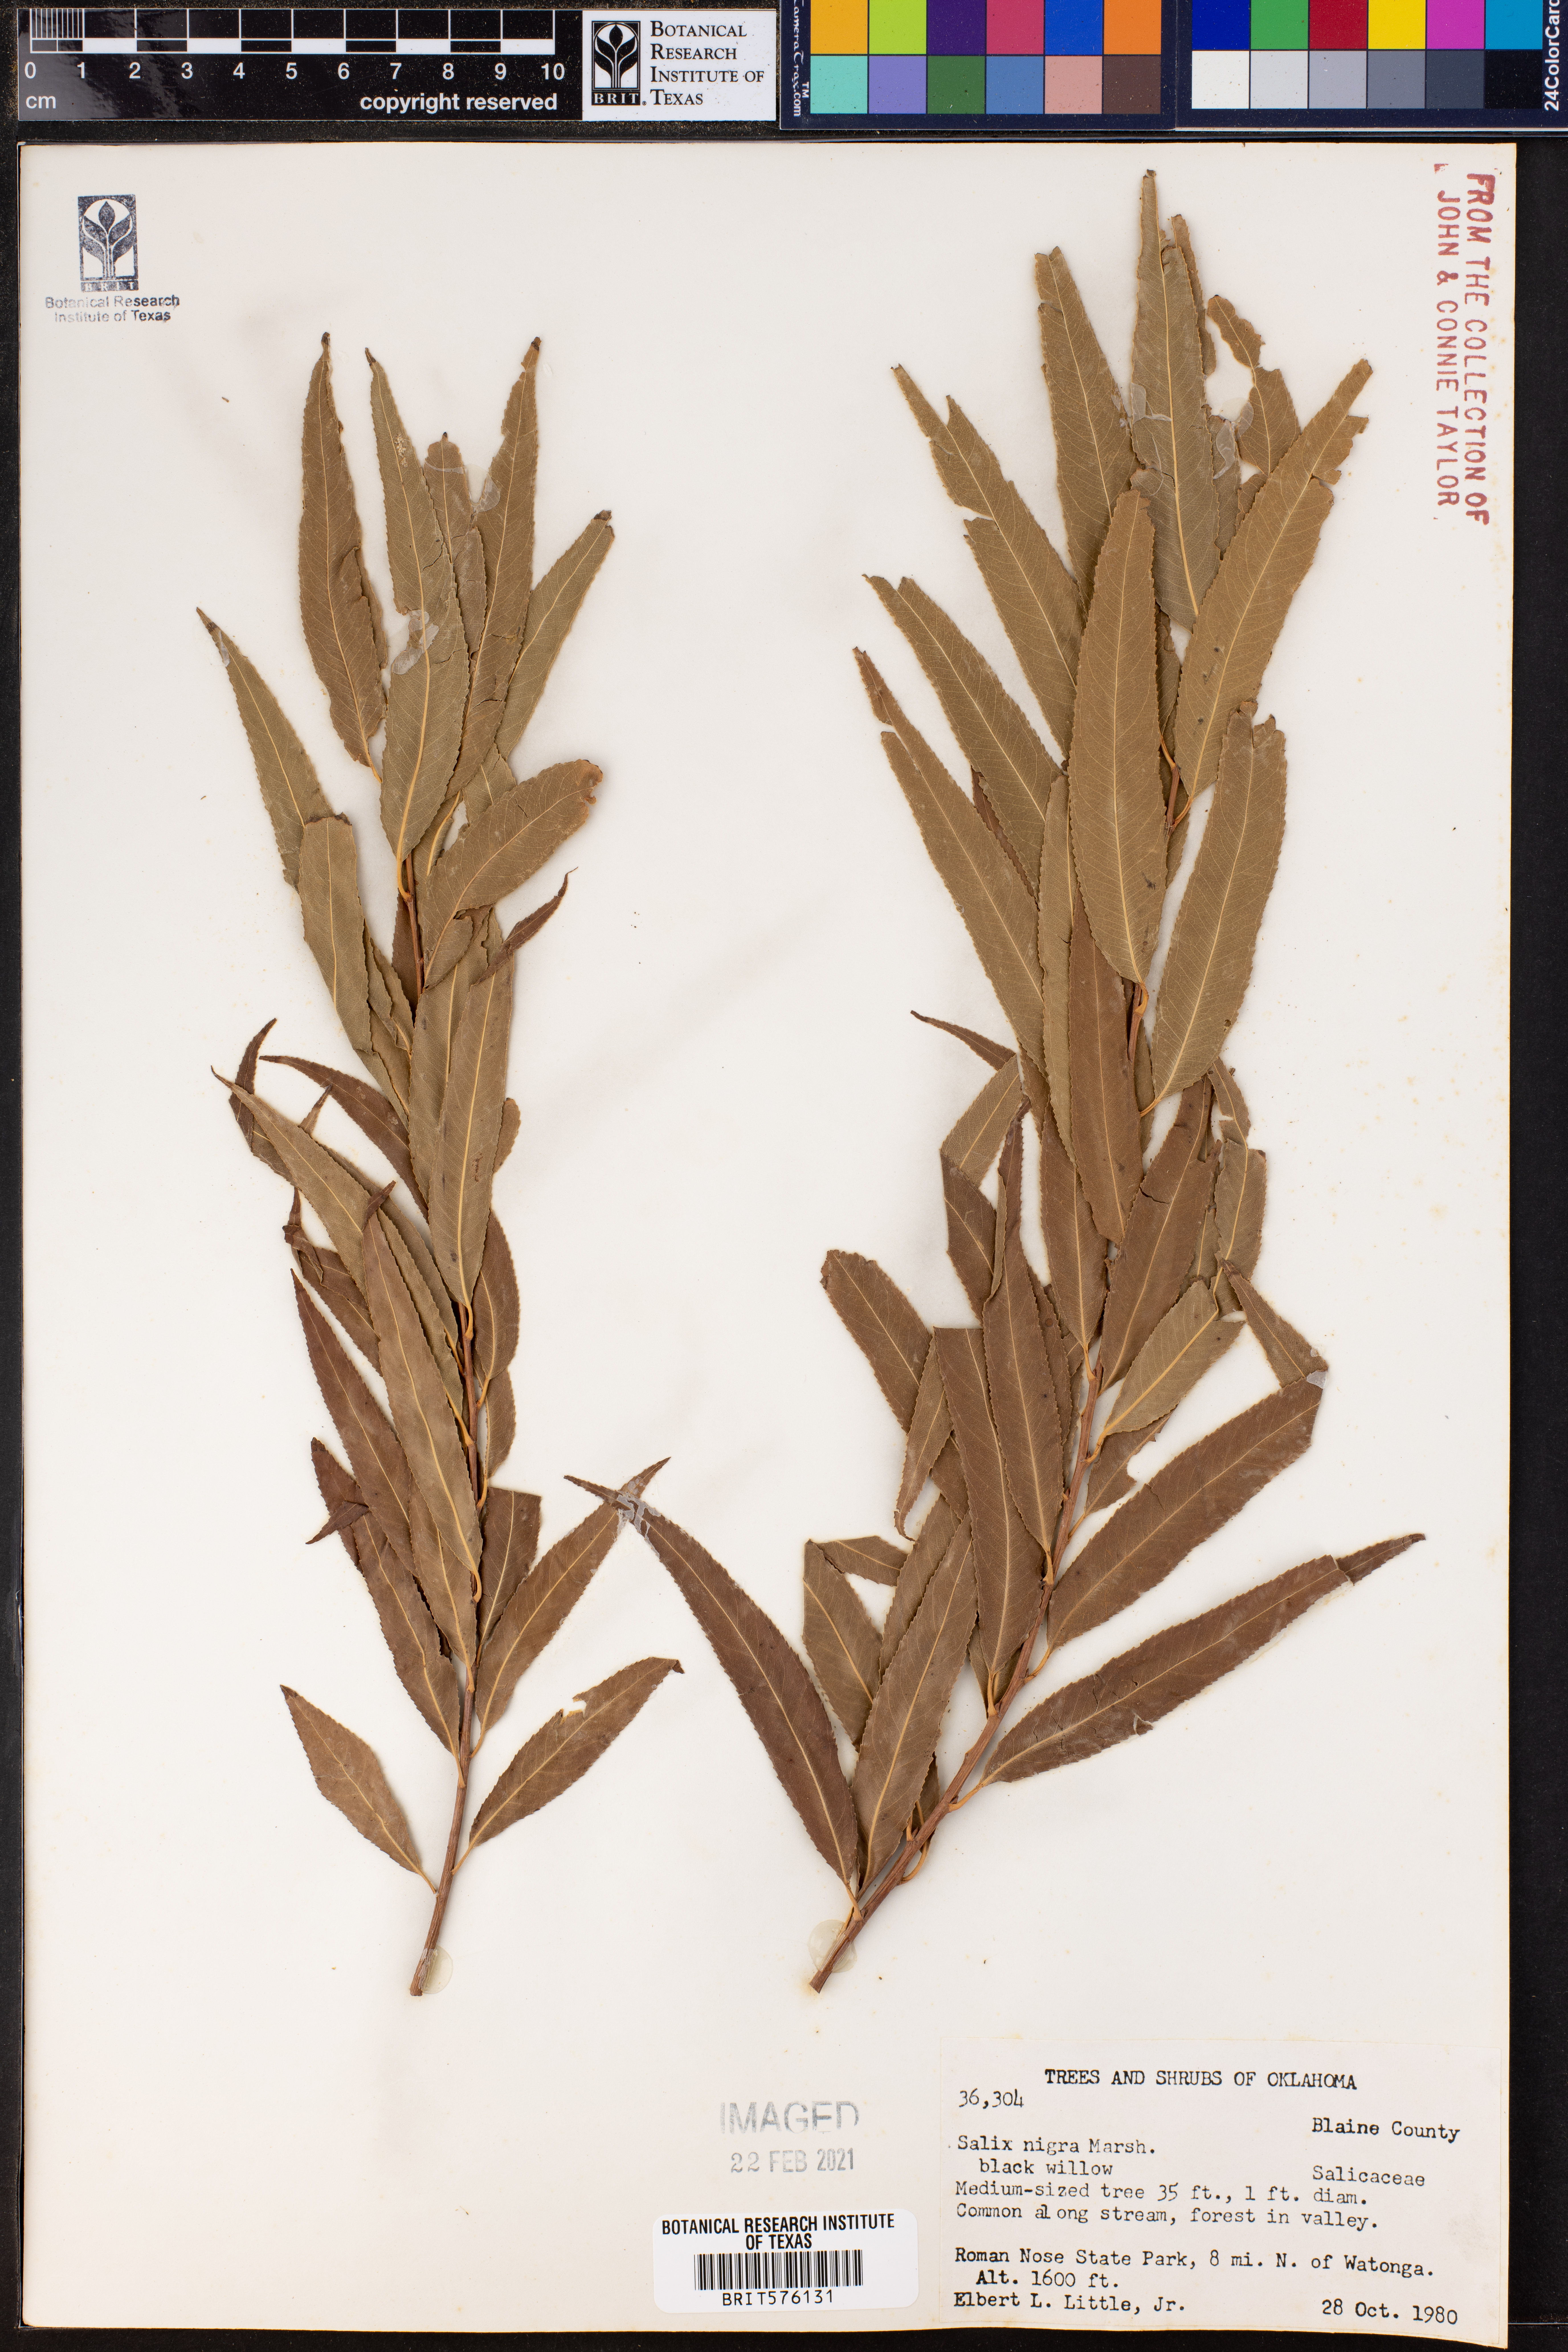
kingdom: Plantae
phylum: Tracheophyta
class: Magnoliopsida
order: Malpighiales
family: Salicaceae
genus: Salix
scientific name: Salix nigra
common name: Black willow
